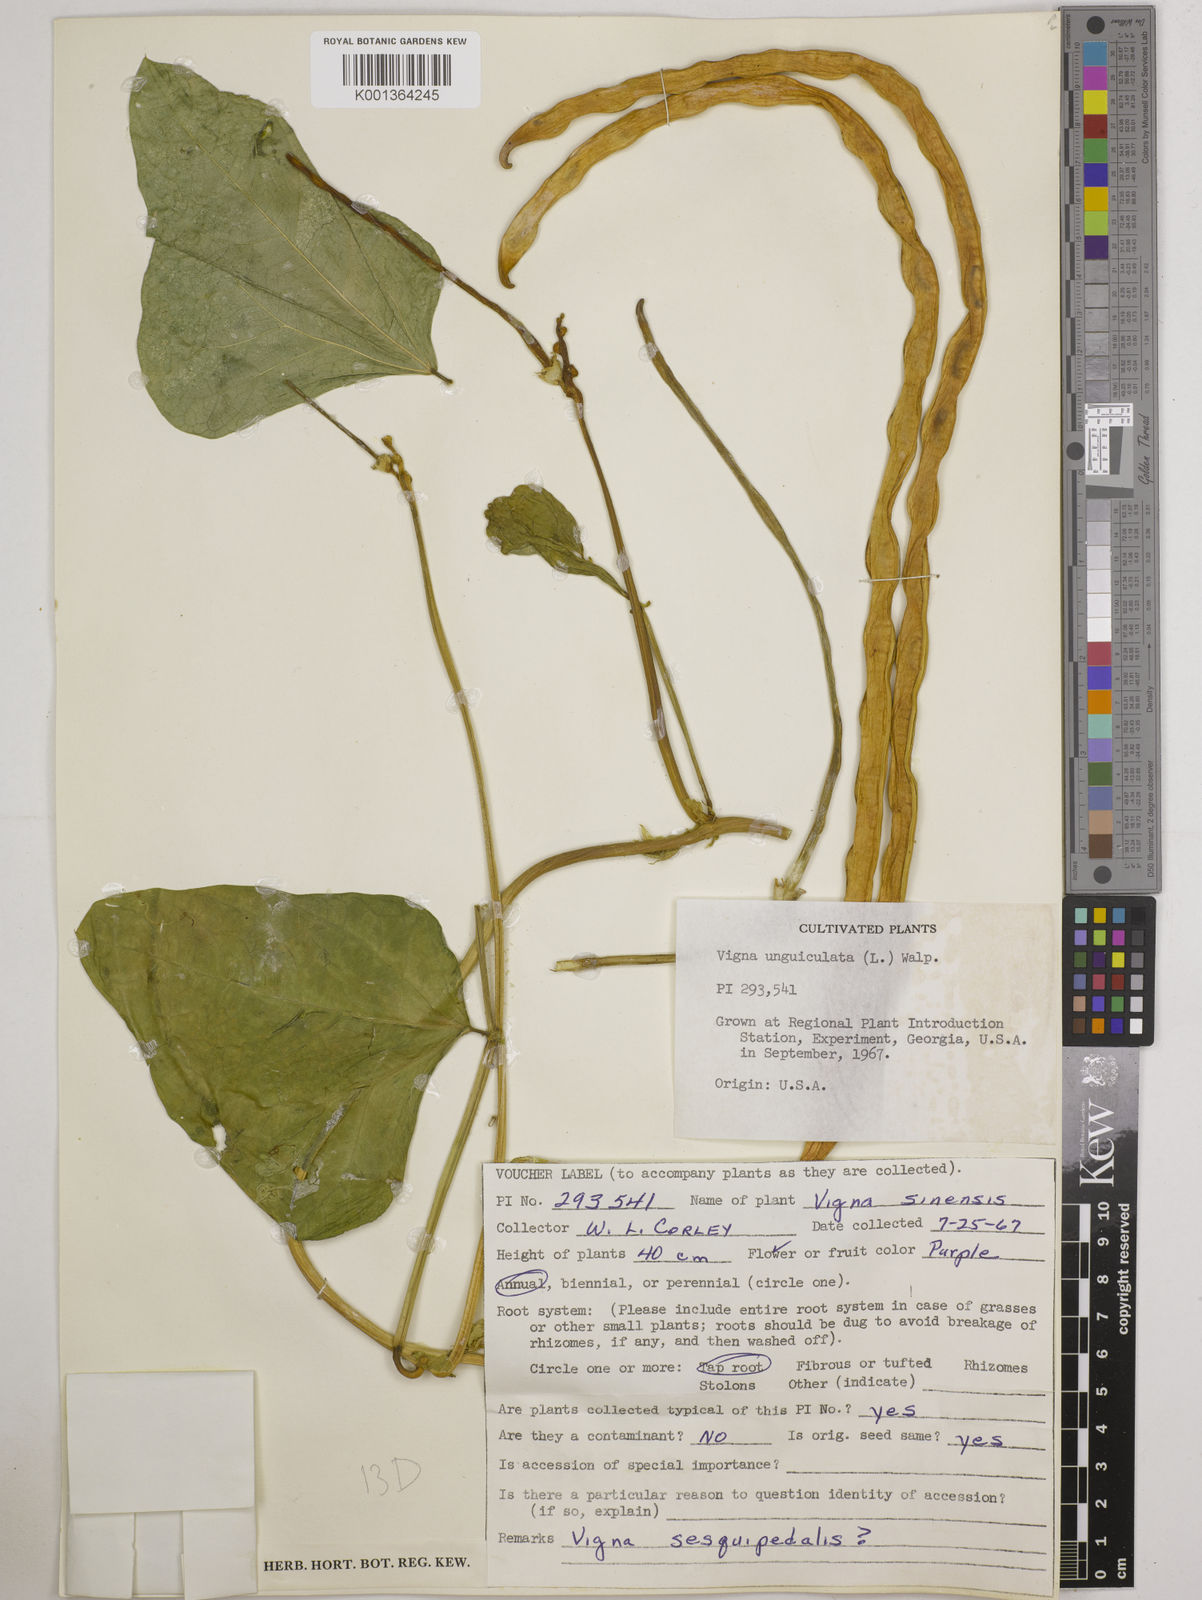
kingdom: Plantae
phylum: Tracheophyta
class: Magnoliopsida
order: Fabales
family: Fabaceae
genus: Vigna
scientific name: Vigna unguiculata
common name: Cowpea
